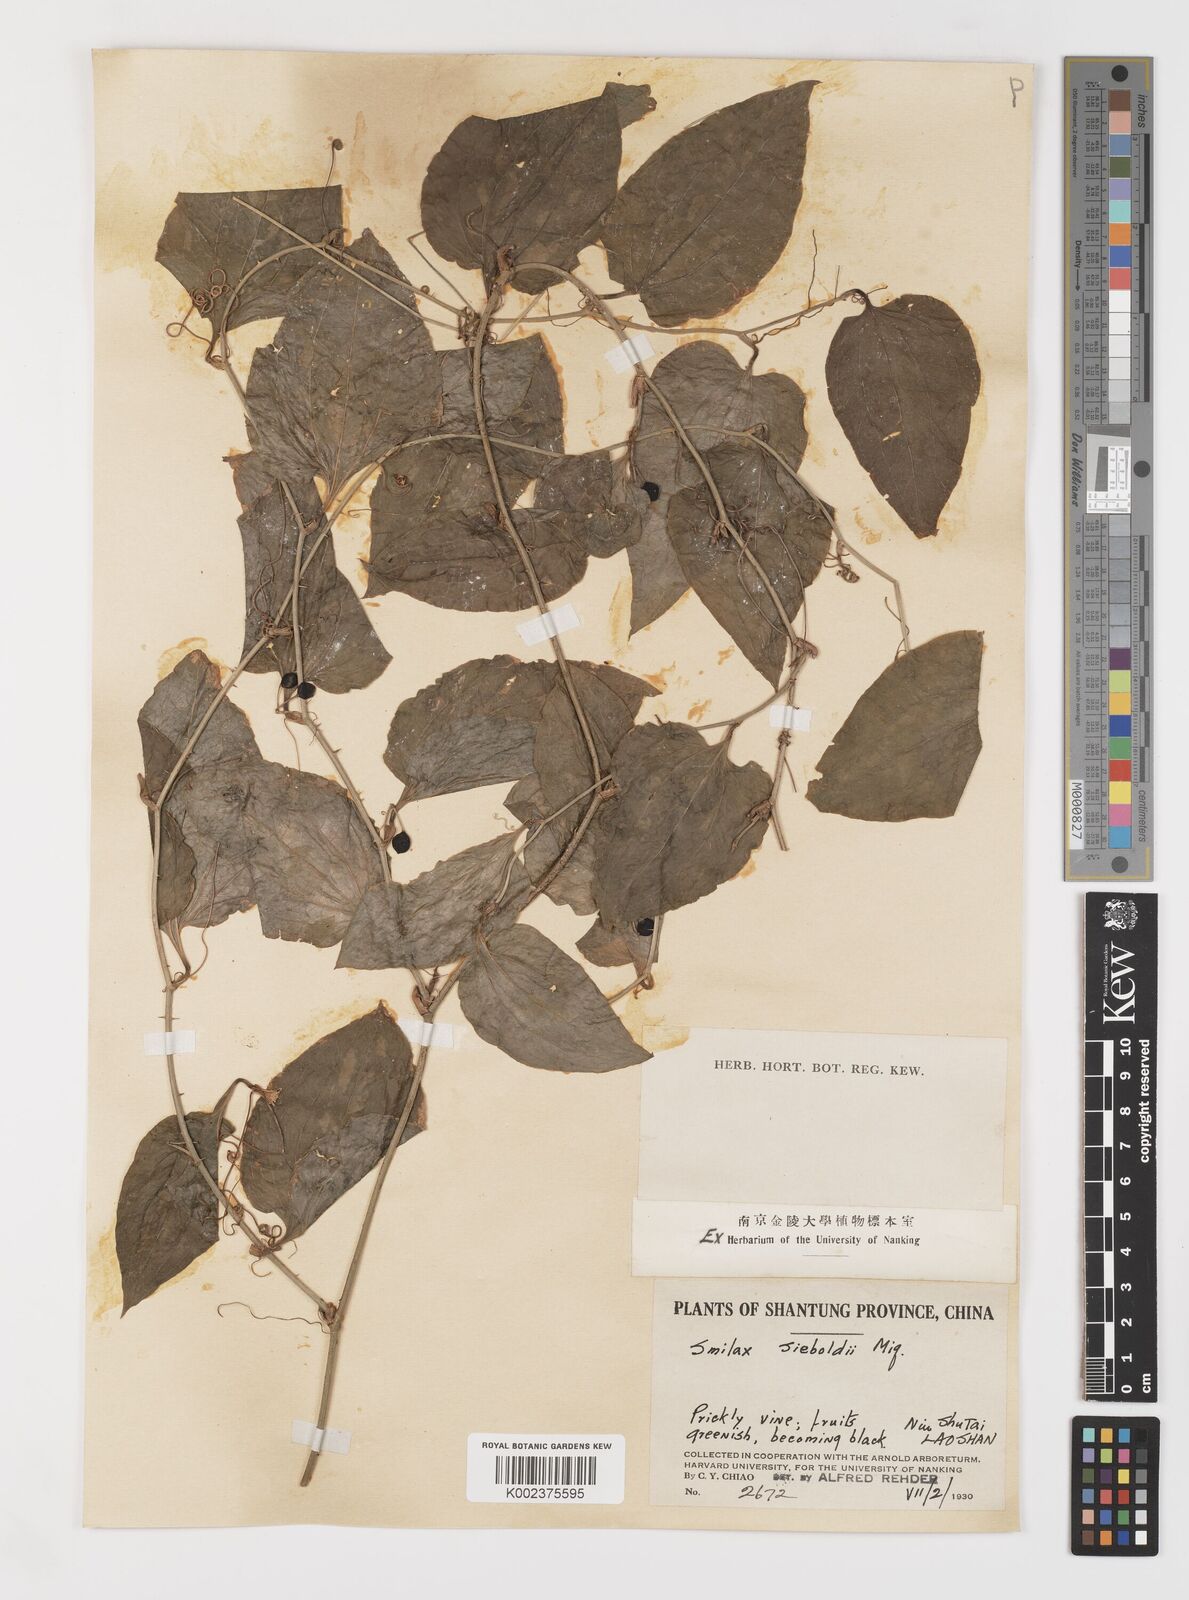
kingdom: Plantae
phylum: Tracheophyta
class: Liliopsida
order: Liliales
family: Smilacaceae
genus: Smilax
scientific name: Smilax sieboldii
